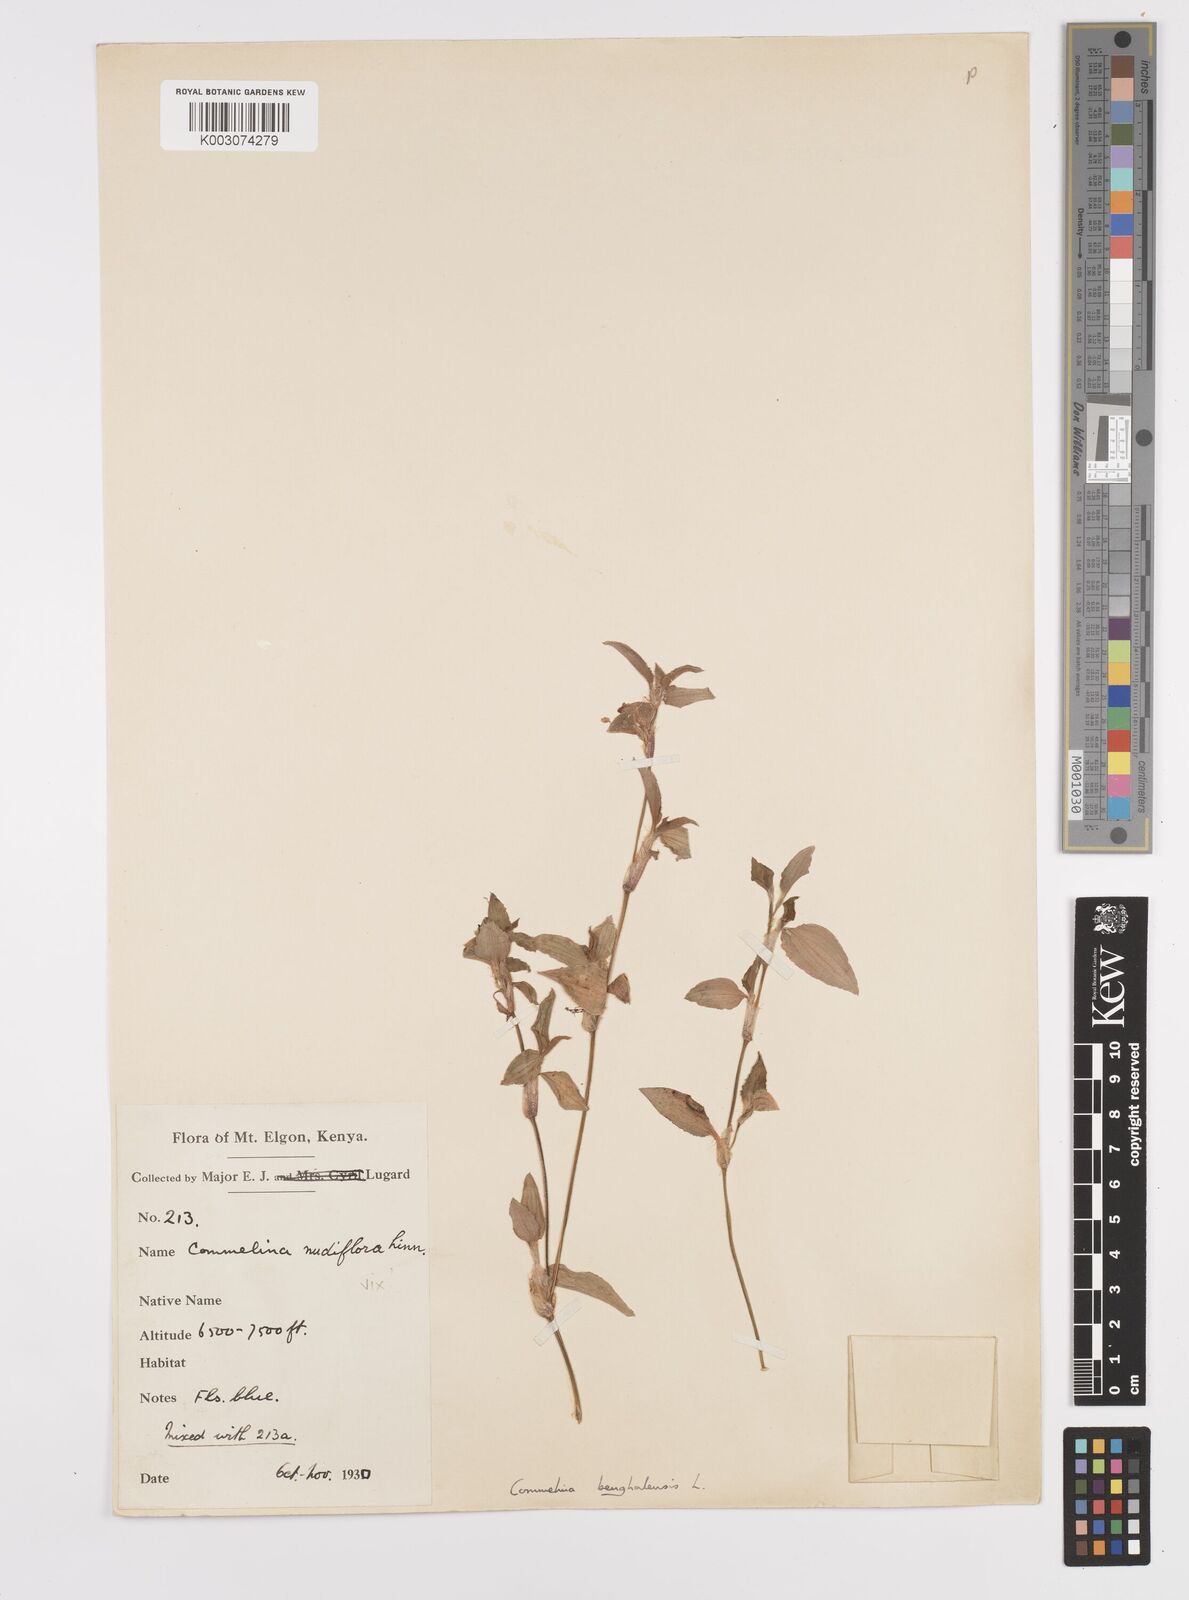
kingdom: Plantae
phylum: Tracheophyta
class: Liliopsida
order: Commelinales
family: Commelinaceae
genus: Commelina
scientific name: Commelina benghalensis
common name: Jio
